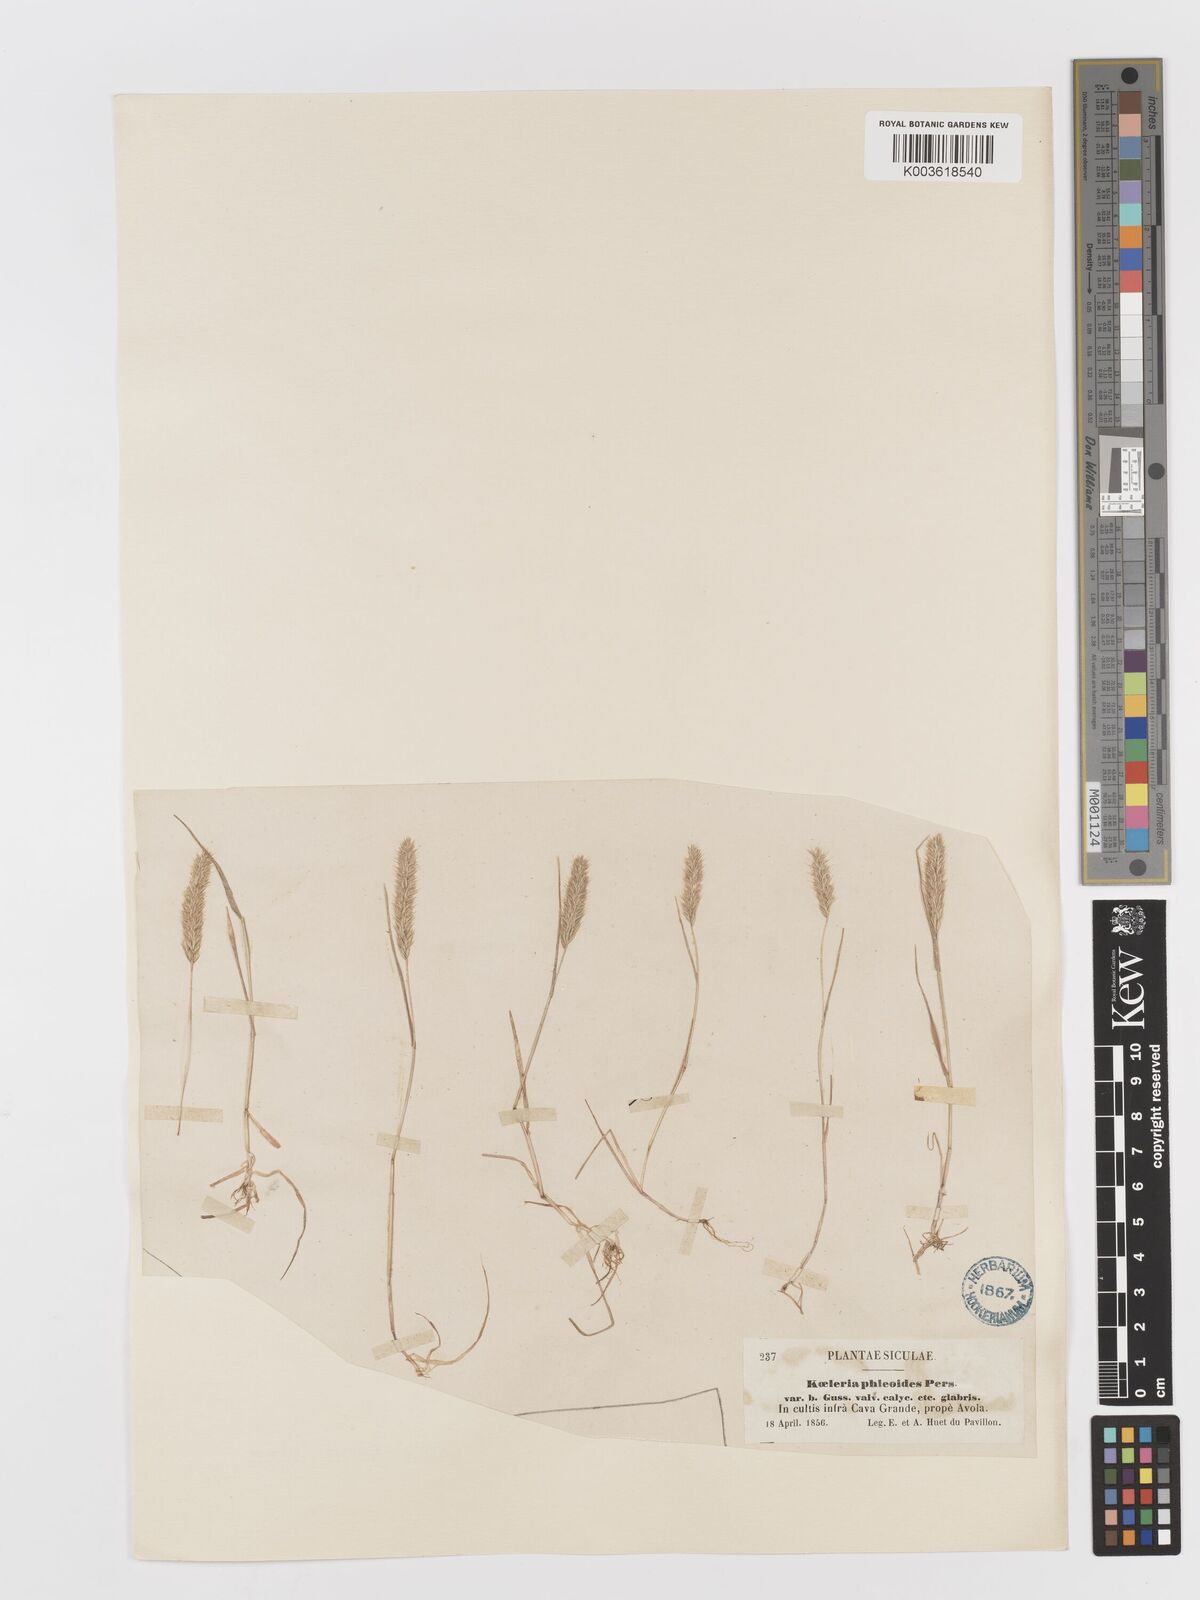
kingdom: Plantae
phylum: Tracheophyta
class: Liliopsida
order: Poales
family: Poaceae
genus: Rostraria
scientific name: Rostraria cristata
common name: Mediterranean hair-grass
